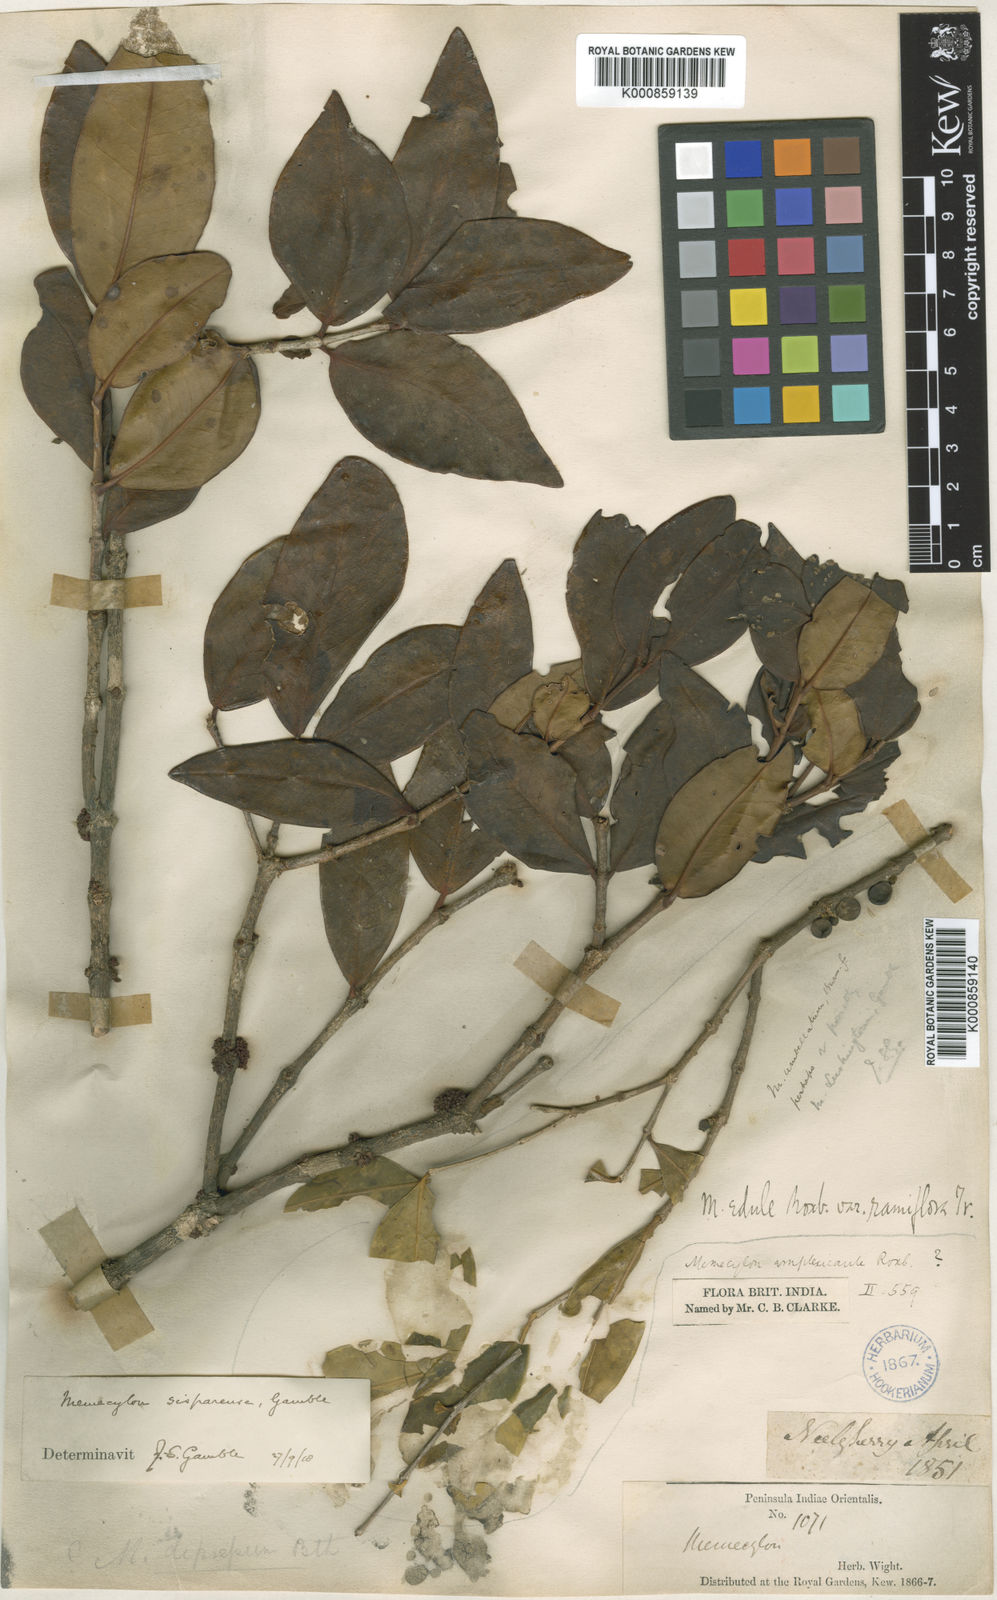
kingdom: Plantae
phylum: Tracheophyta
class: Magnoliopsida
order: Myrtales
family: Melastomataceae
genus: Memecylon
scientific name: Memecylon sisparense
